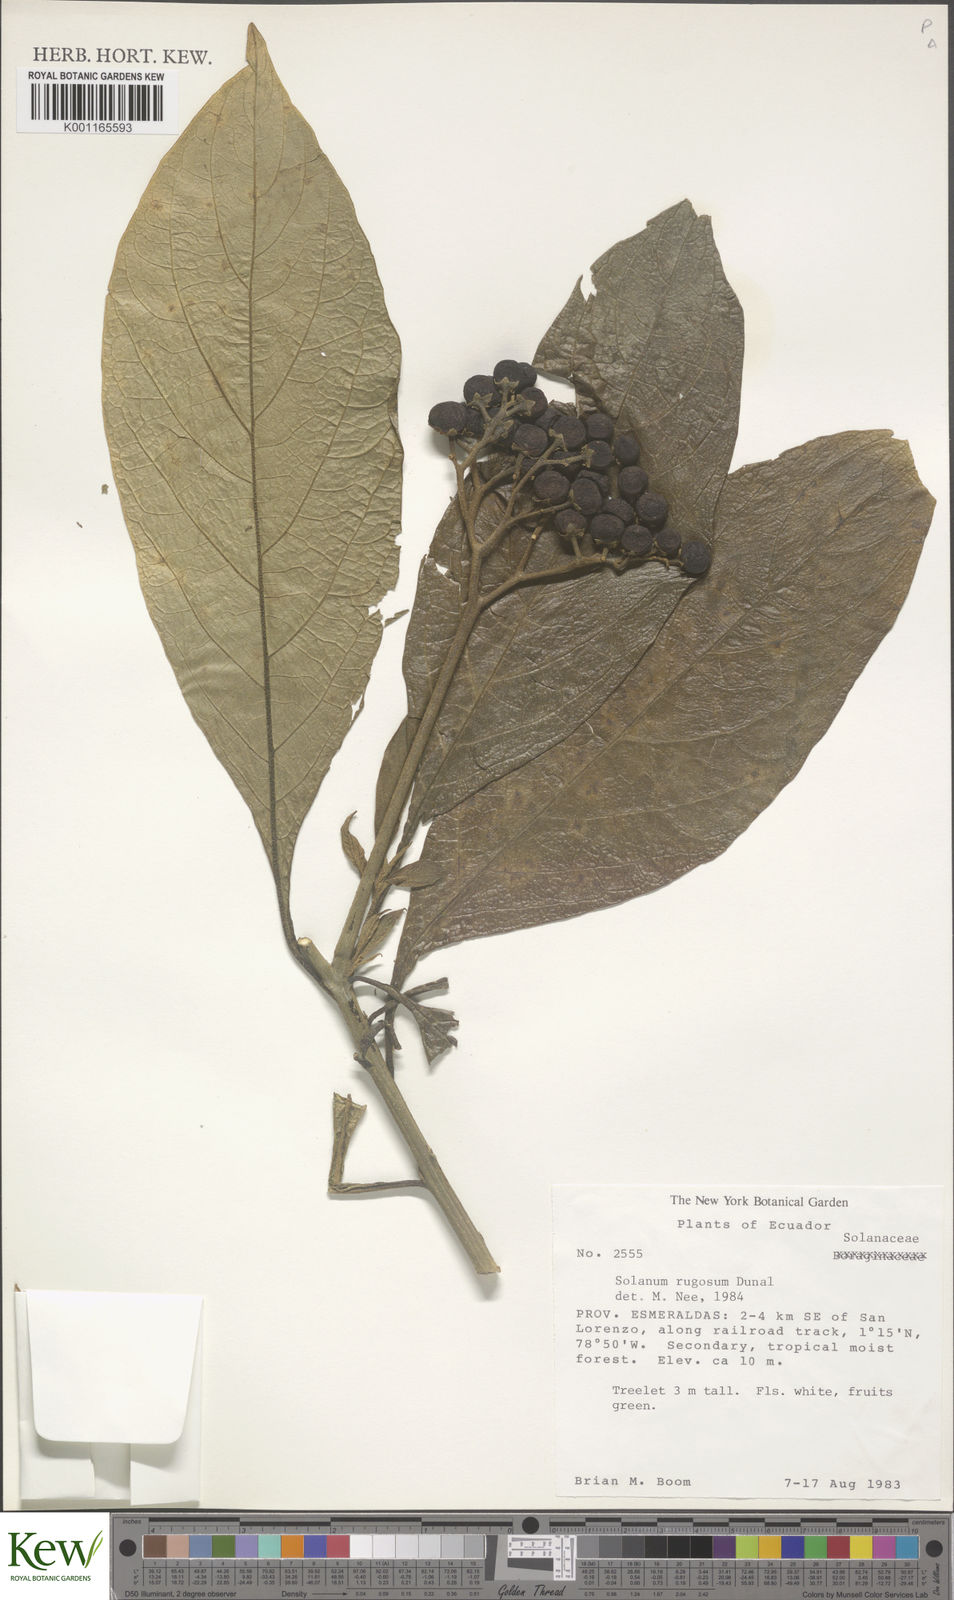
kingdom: Plantae
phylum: Tracheophyta
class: Magnoliopsida
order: Solanales
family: Solanaceae
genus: Solanum
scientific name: Solanum rugosum
